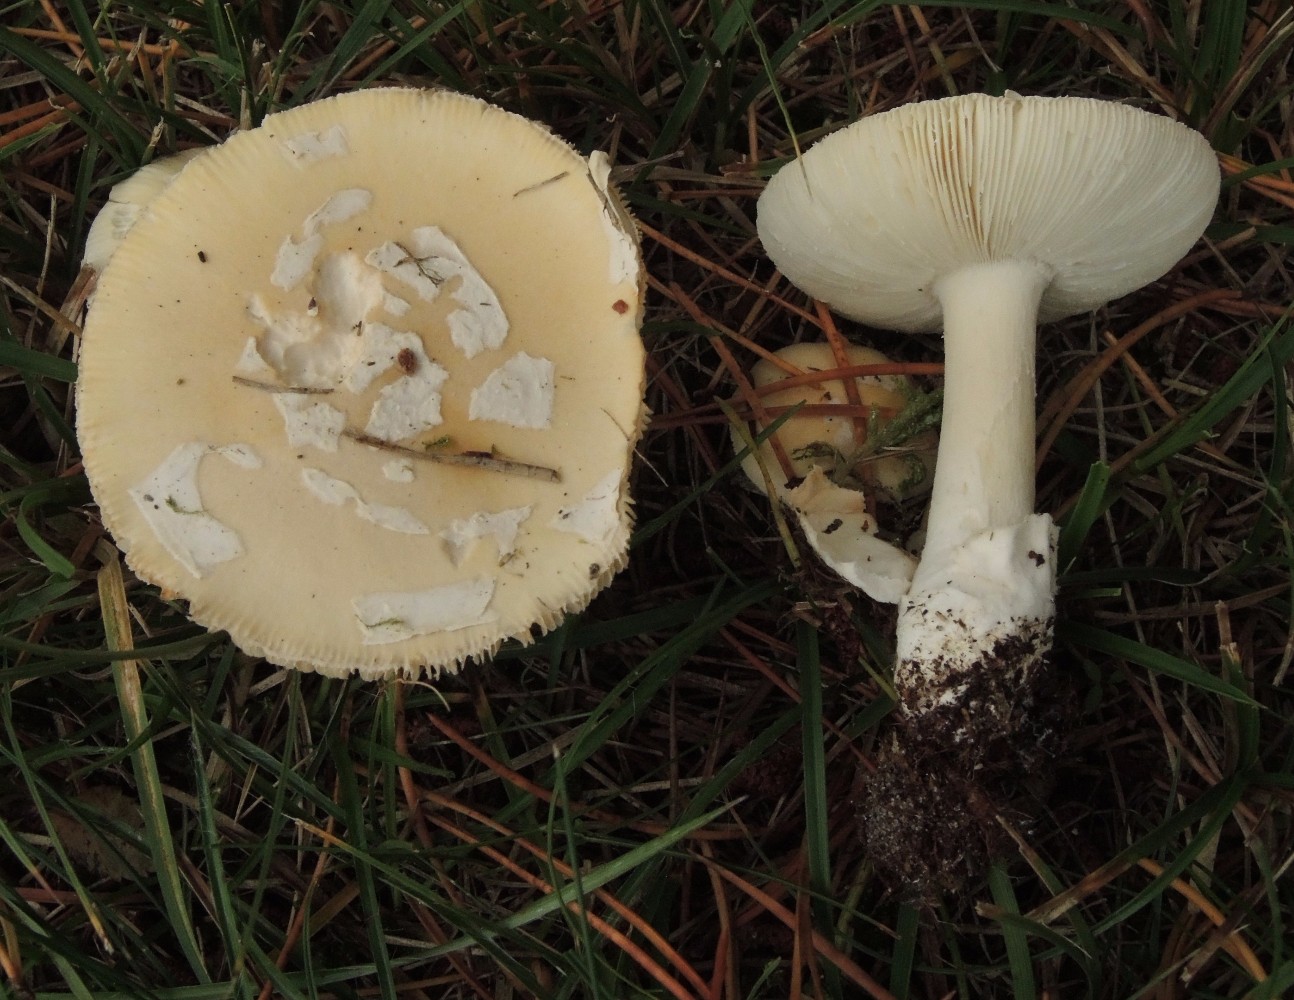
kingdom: Fungi
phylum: Basidiomycota
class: Agaricomycetes
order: Agaricales
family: Amanitaceae
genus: Amanita
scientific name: Amanita gemmata
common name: okkergul fluesvamp
